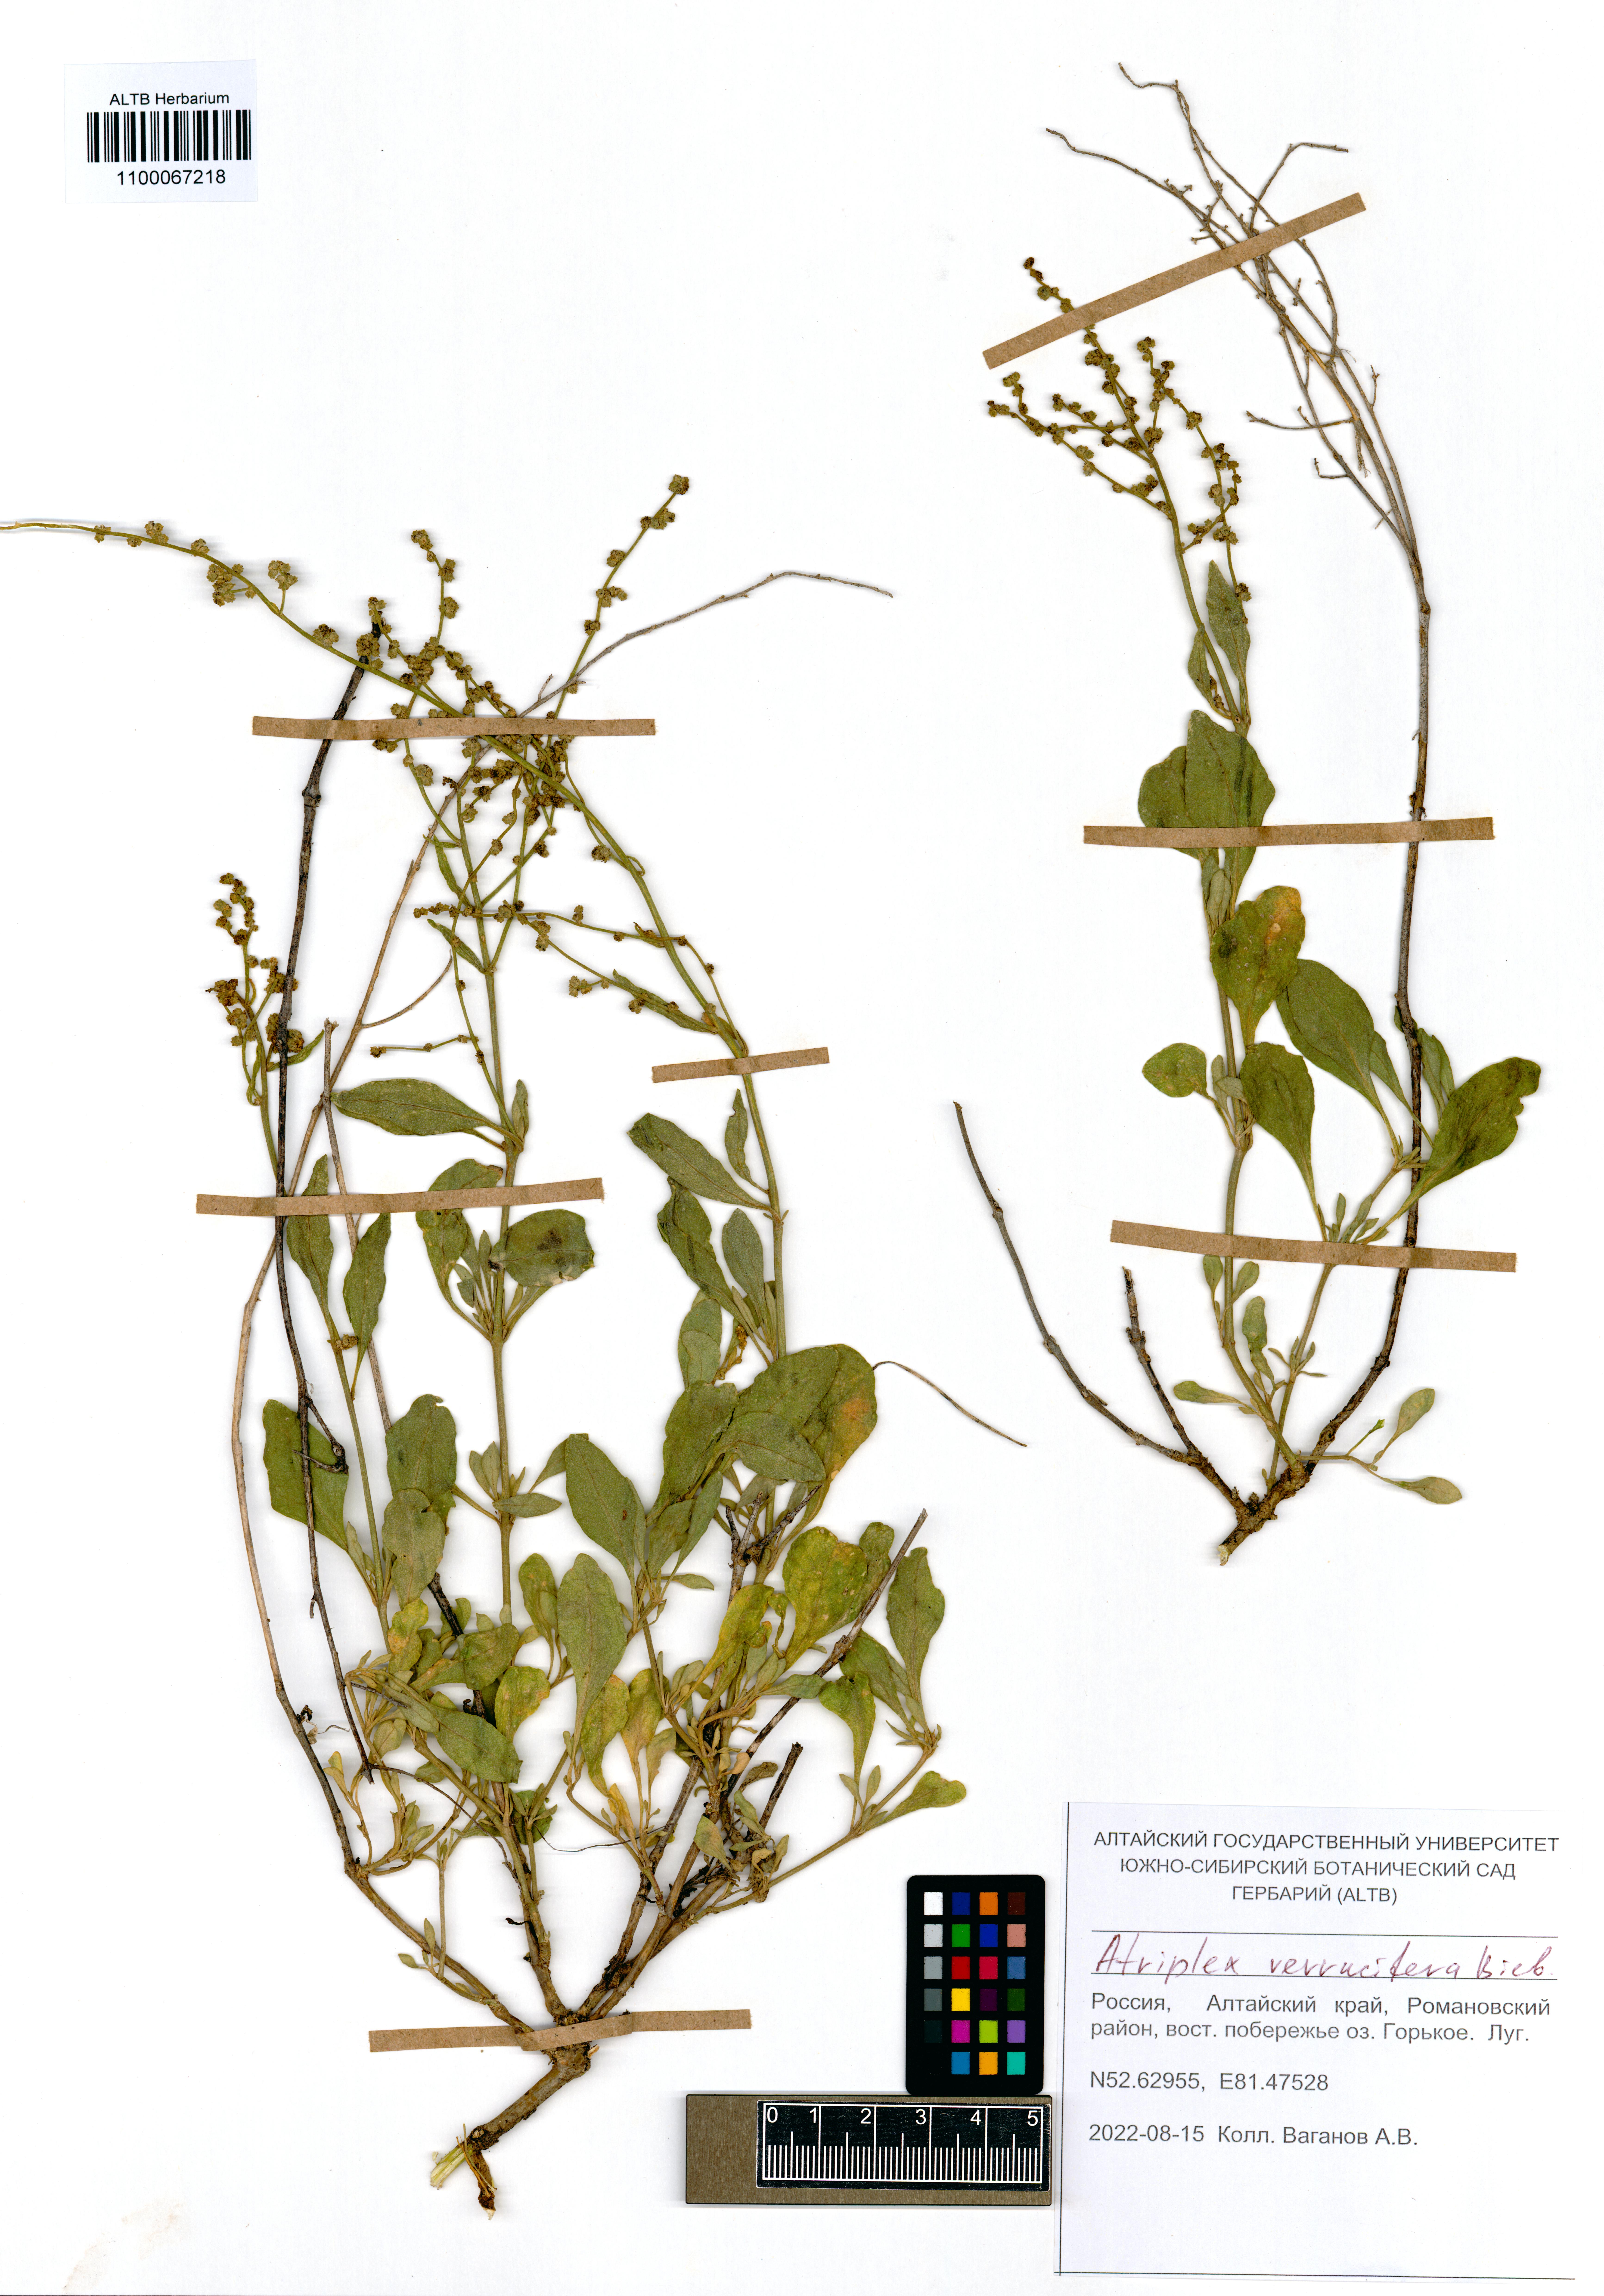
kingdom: Plantae
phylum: Tracheophyta
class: Magnoliopsida
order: Caryophyllales
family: Amaranthaceae
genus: Halimione
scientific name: Halimione verrucifera
